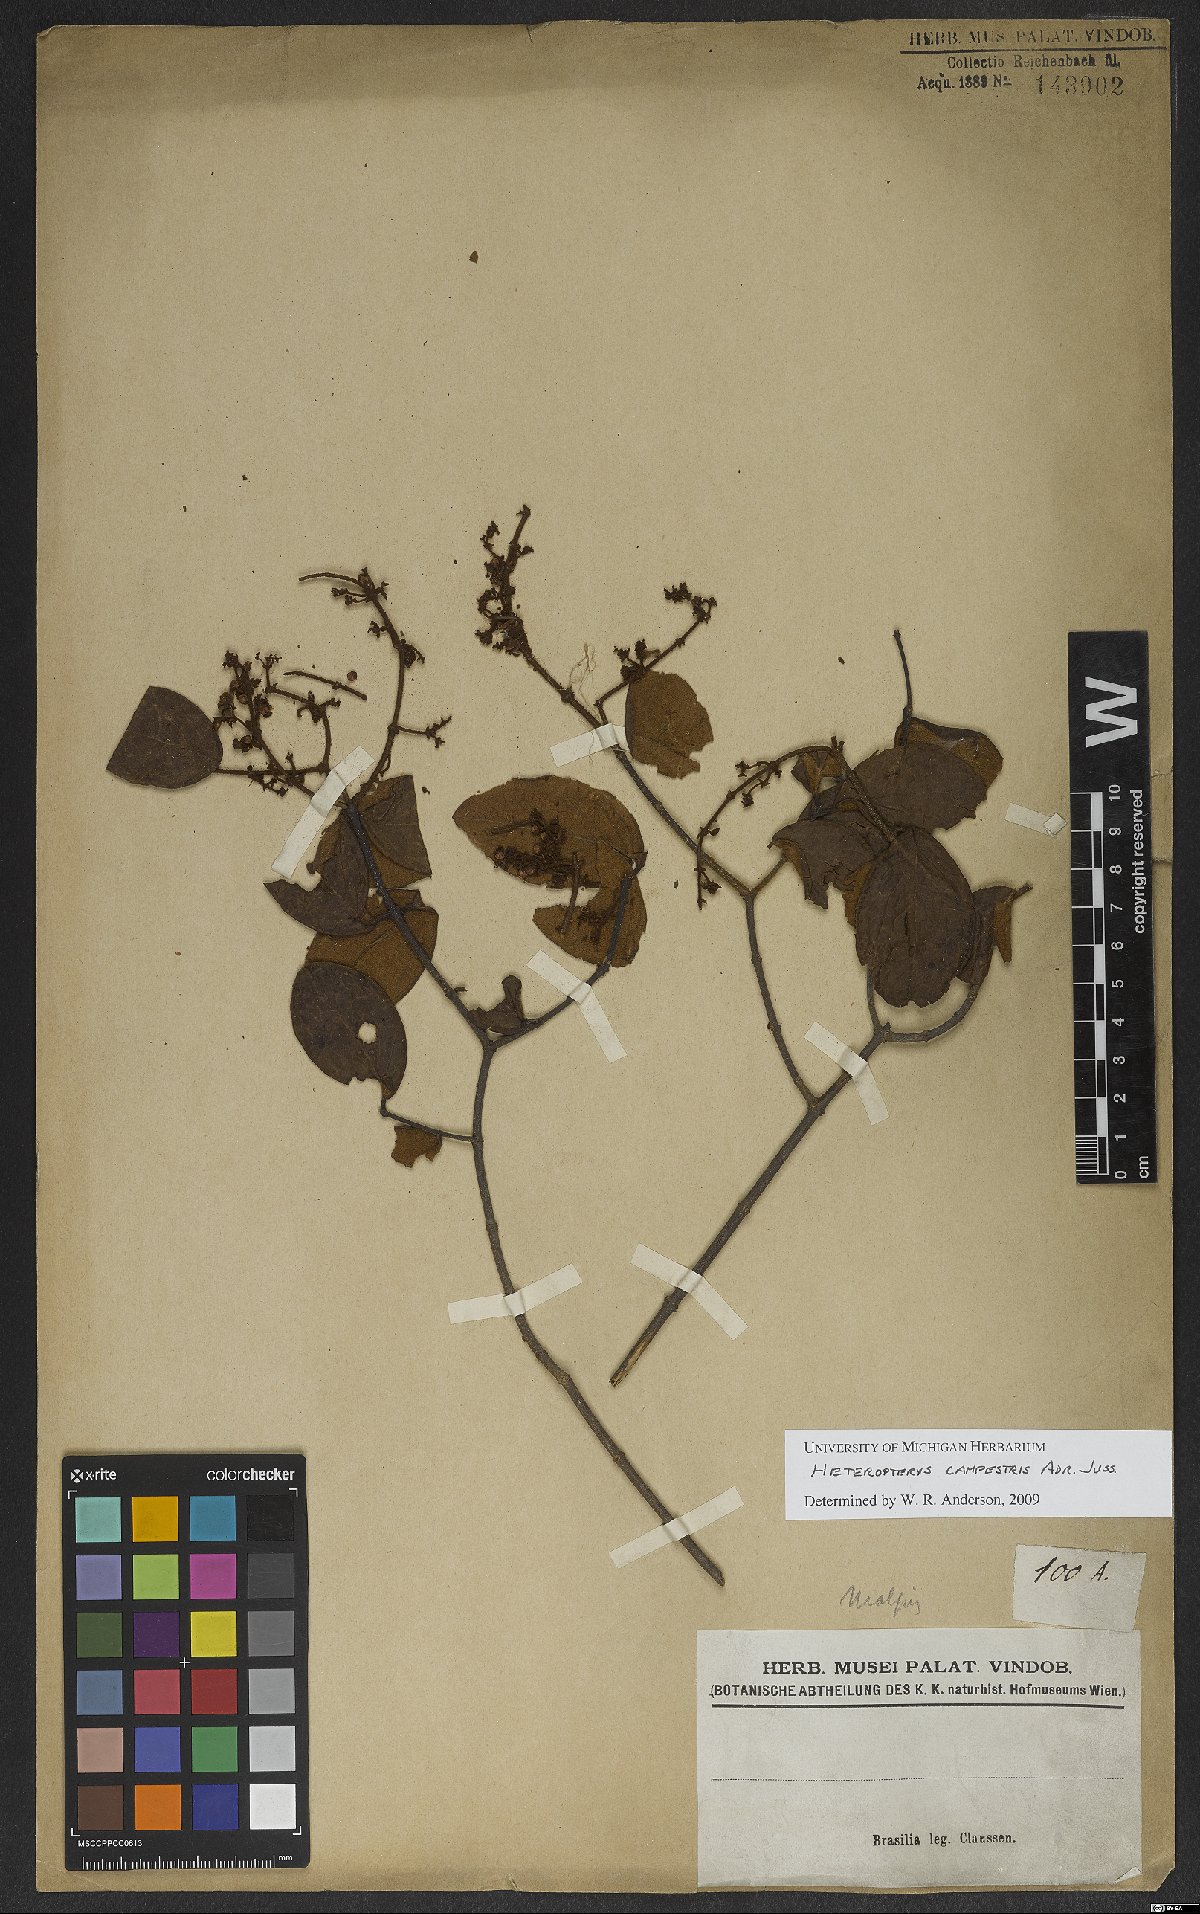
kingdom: Plantae
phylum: Tracheophyta
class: Magnoliopsida
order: Malpighiales
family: Malpighiaceae
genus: Heteropterys
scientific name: Heteropterys campestris
